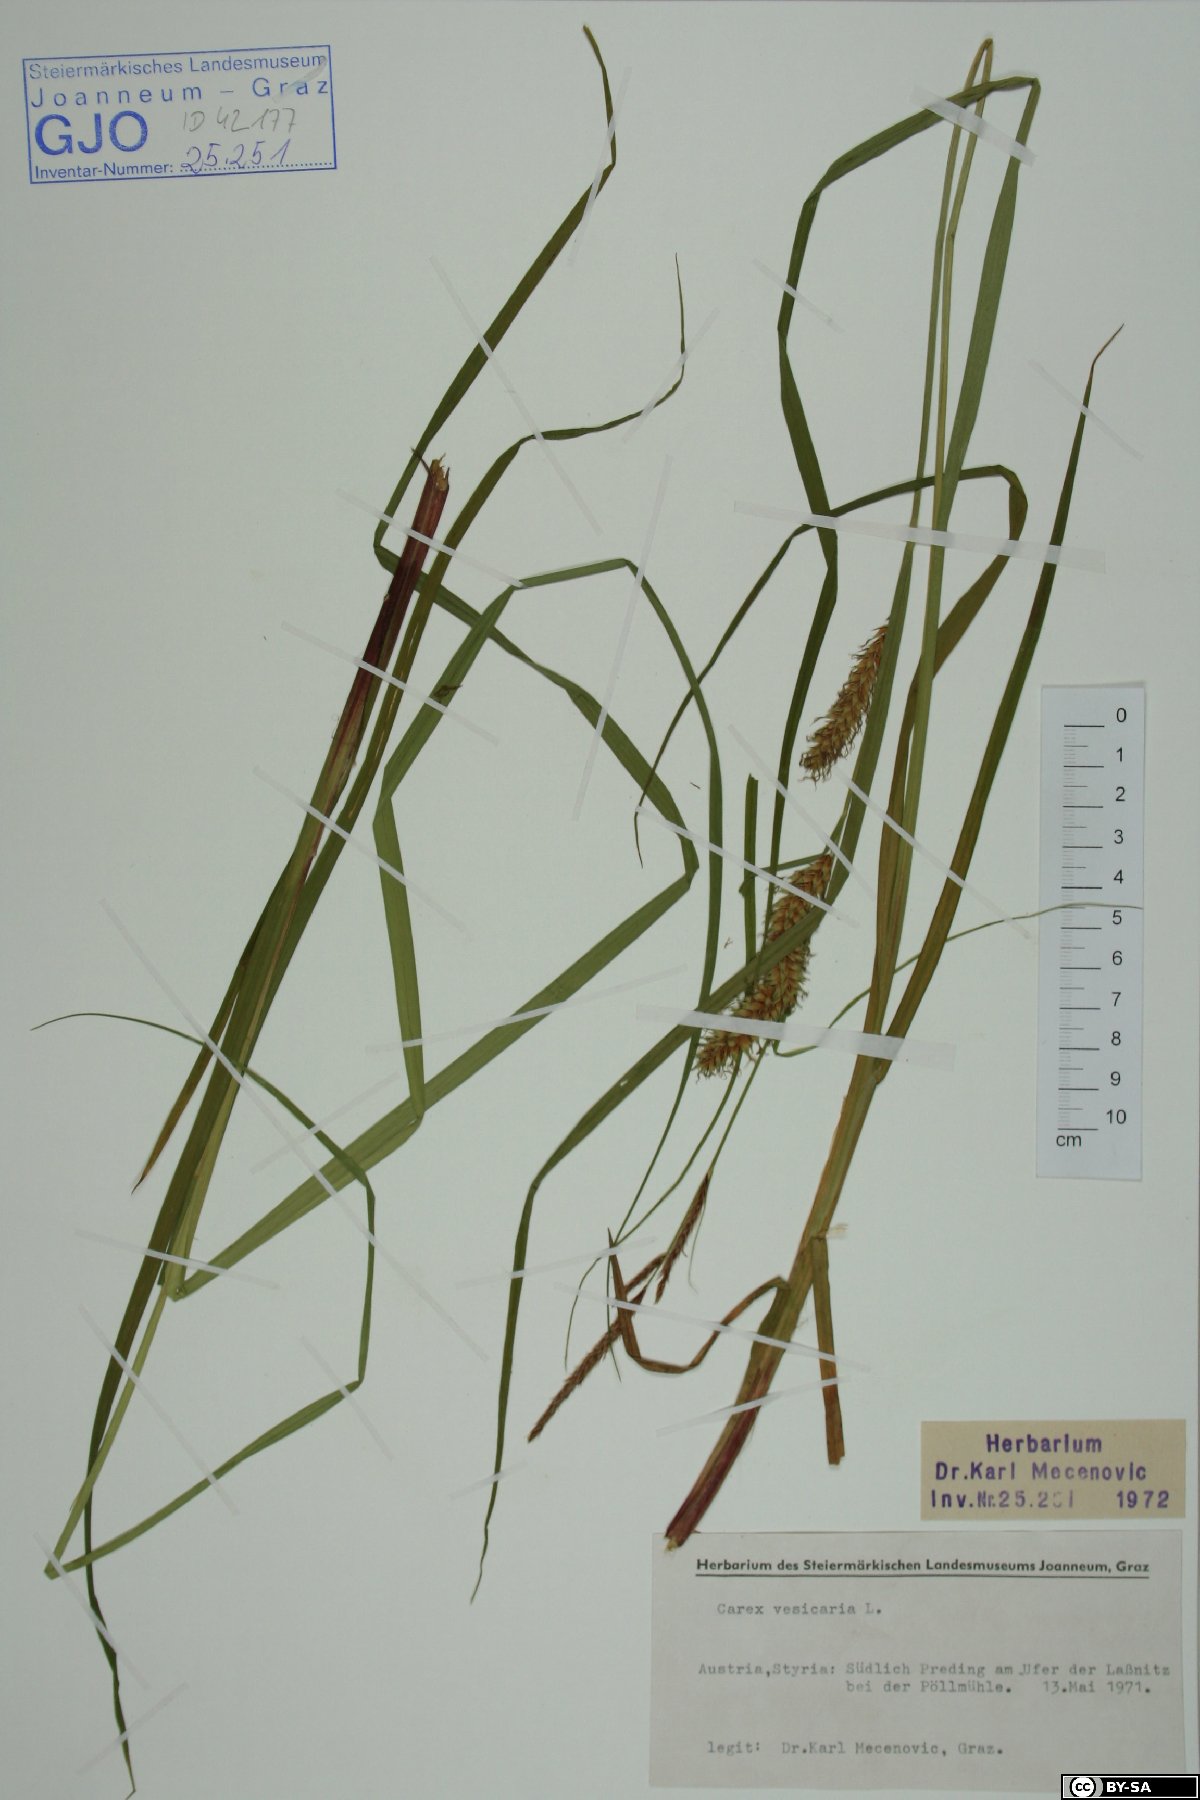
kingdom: Plantae
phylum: Tracheophyta
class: Liliopsida
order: Poales
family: Cyperaceae
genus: Carex
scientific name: Carex vesicaria
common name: Bladder-sedge
